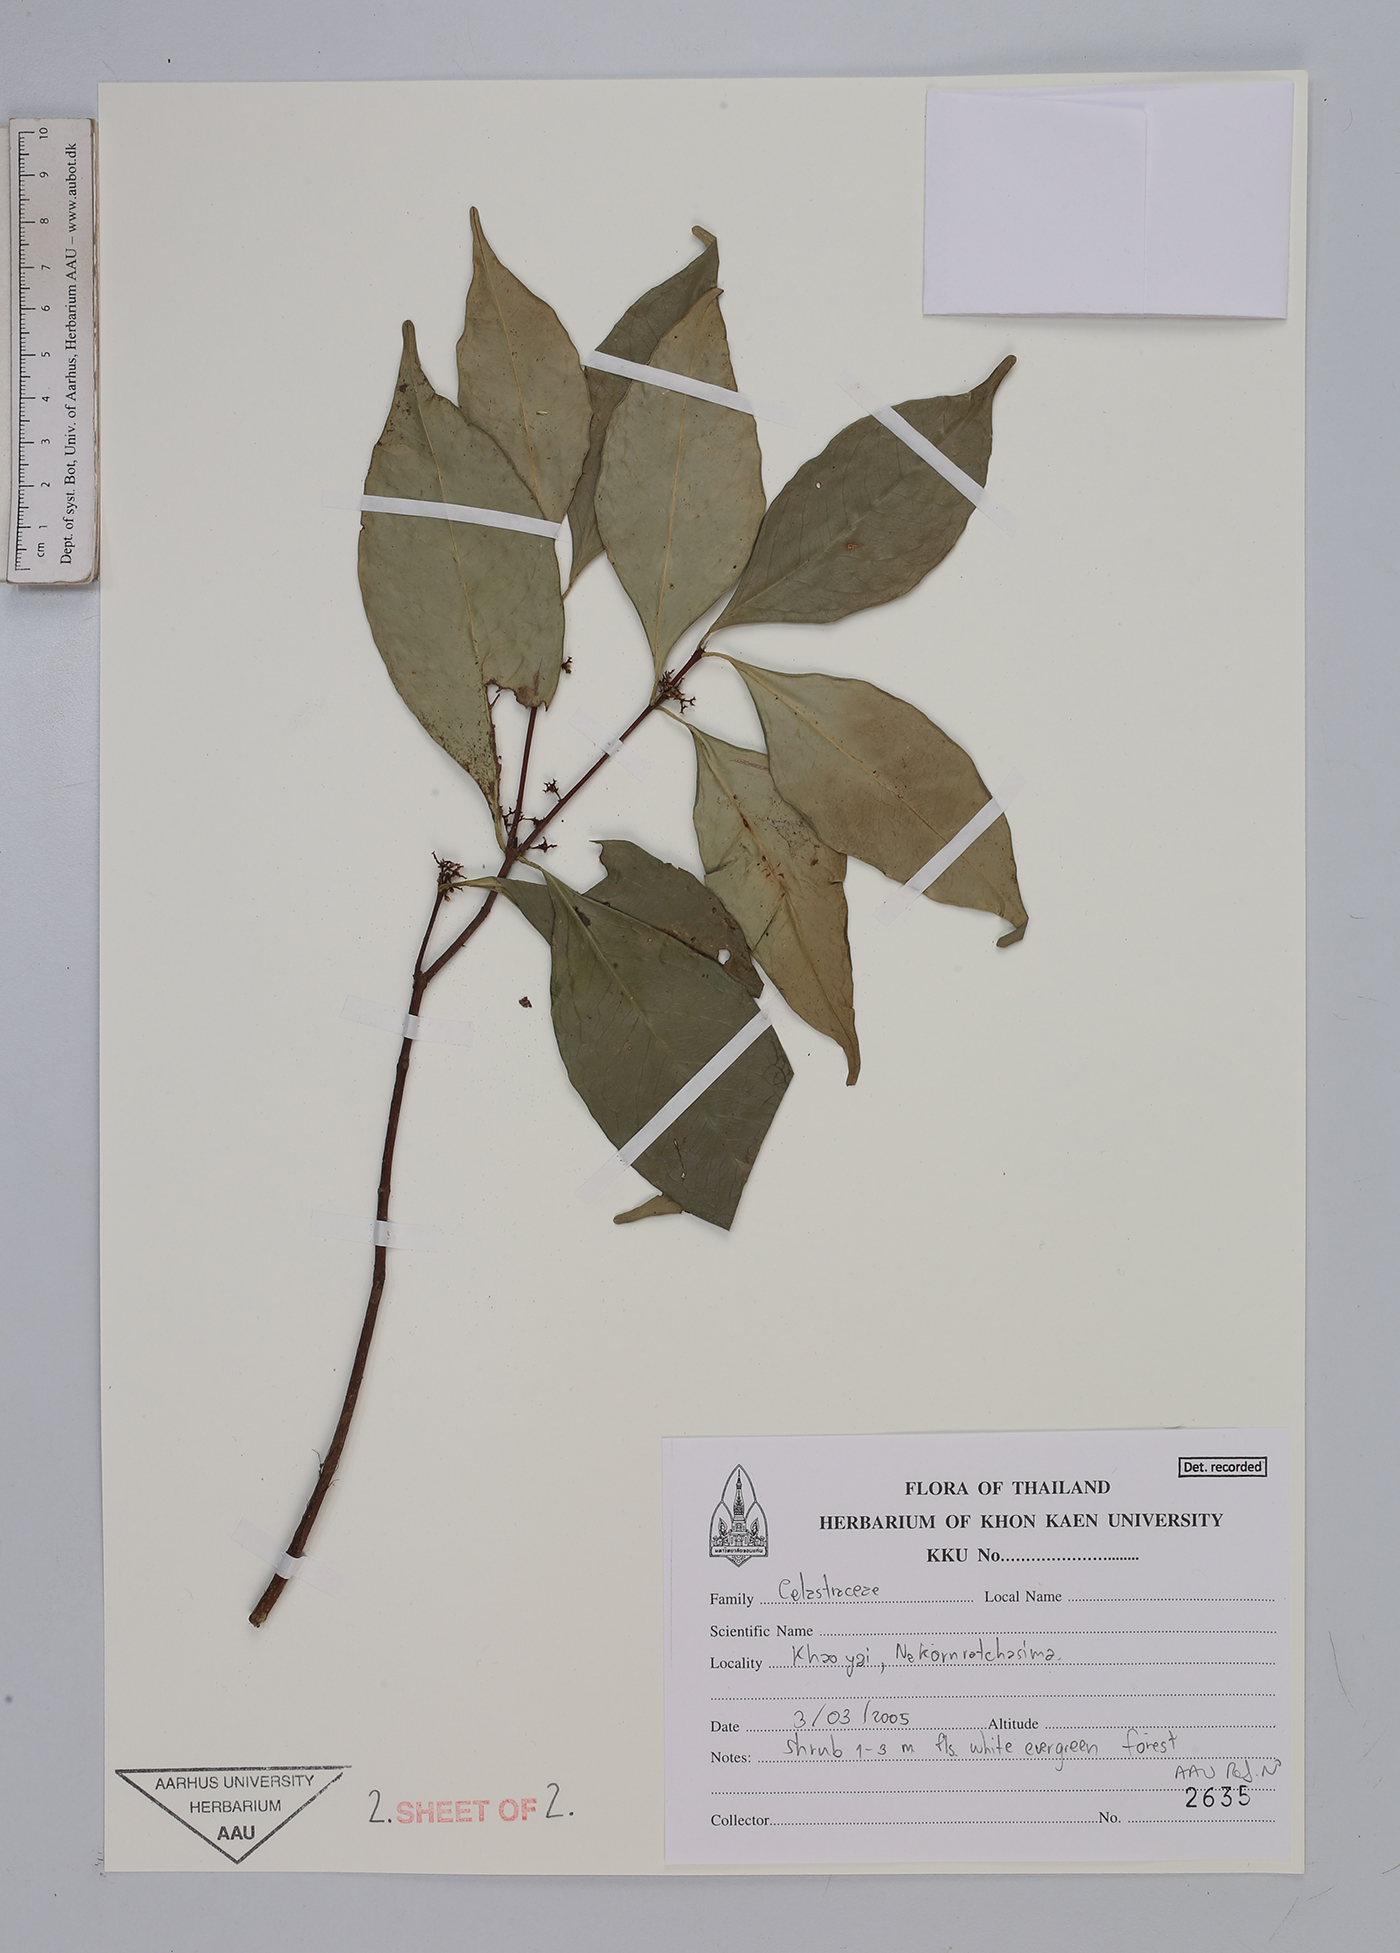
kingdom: Plantae
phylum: Tracheophyta
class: Magnoliopsida
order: Celastrales
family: Celastraceae
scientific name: Celastraceae
